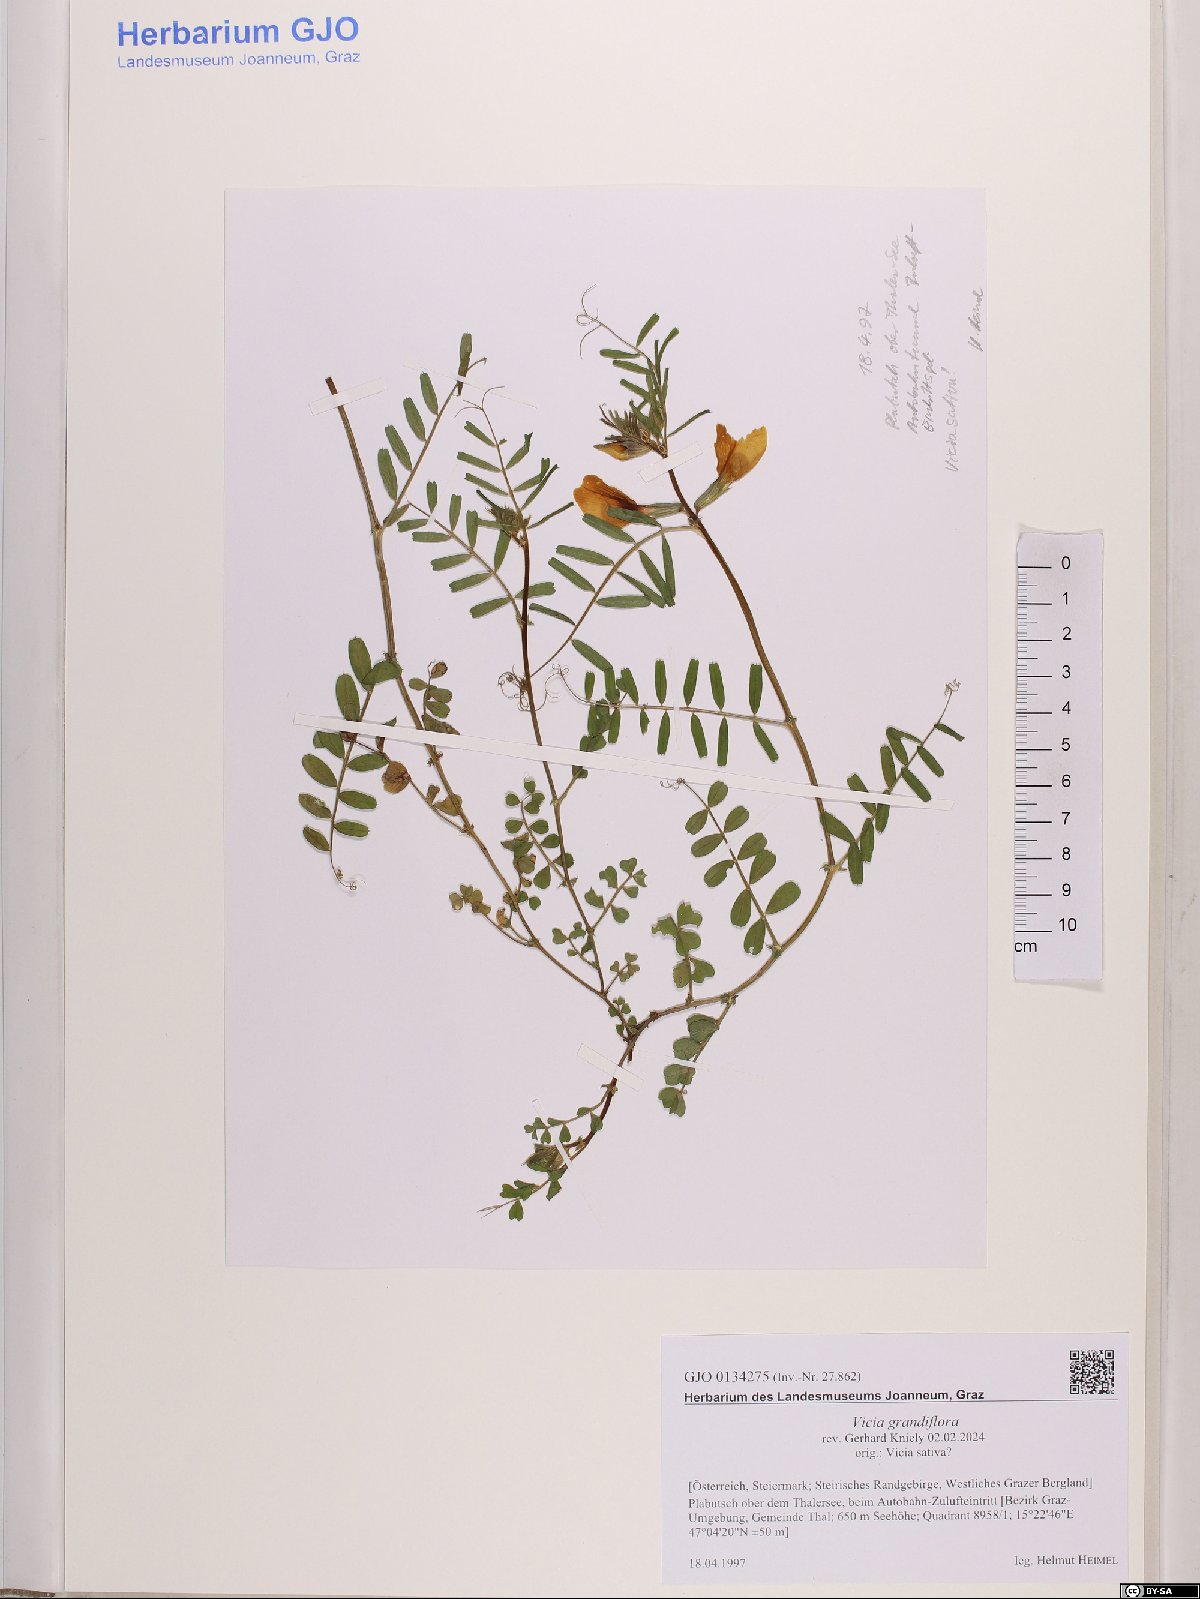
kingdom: Plantae
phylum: Tracheophyta
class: Magnoliopsida
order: Fabales
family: Fabaceae
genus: Vicia
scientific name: Vicia grandiflora
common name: Large yellow vetch
